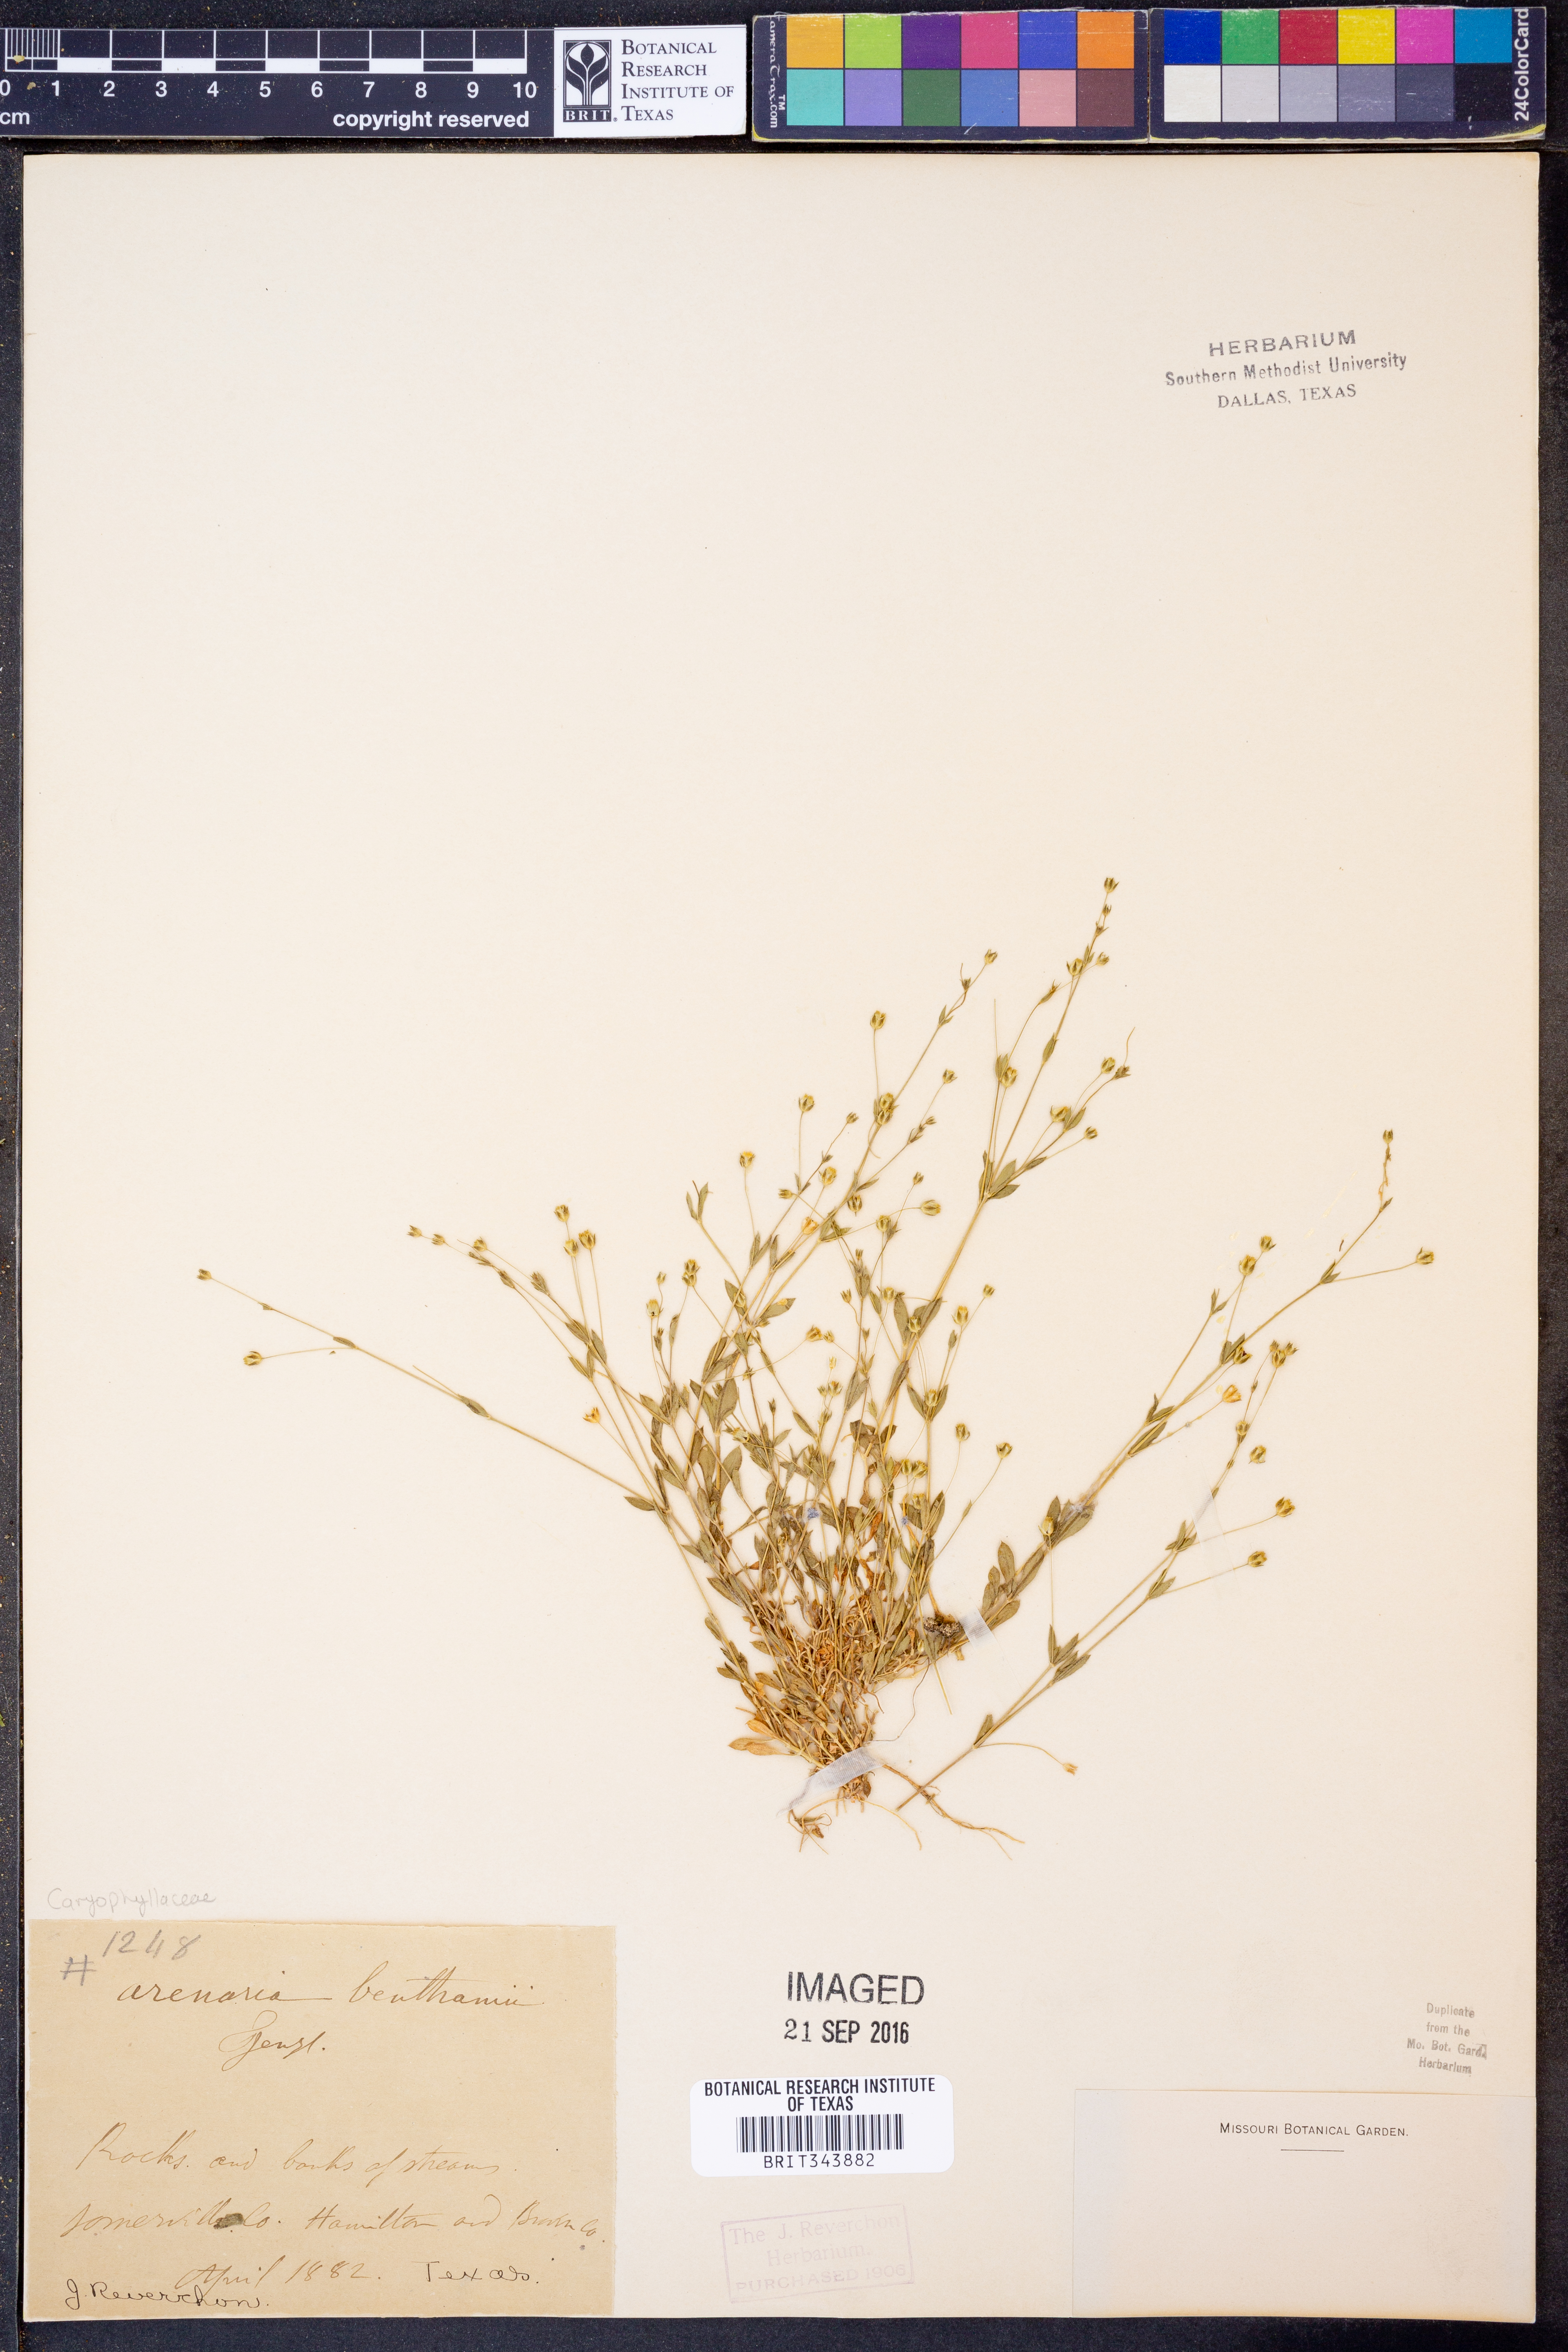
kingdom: Plantae
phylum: Tracheophyta
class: Magnoliopsida
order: Caryophyllales
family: Caryophyllaceae
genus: Arenaria
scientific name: Arenaria benthamii
